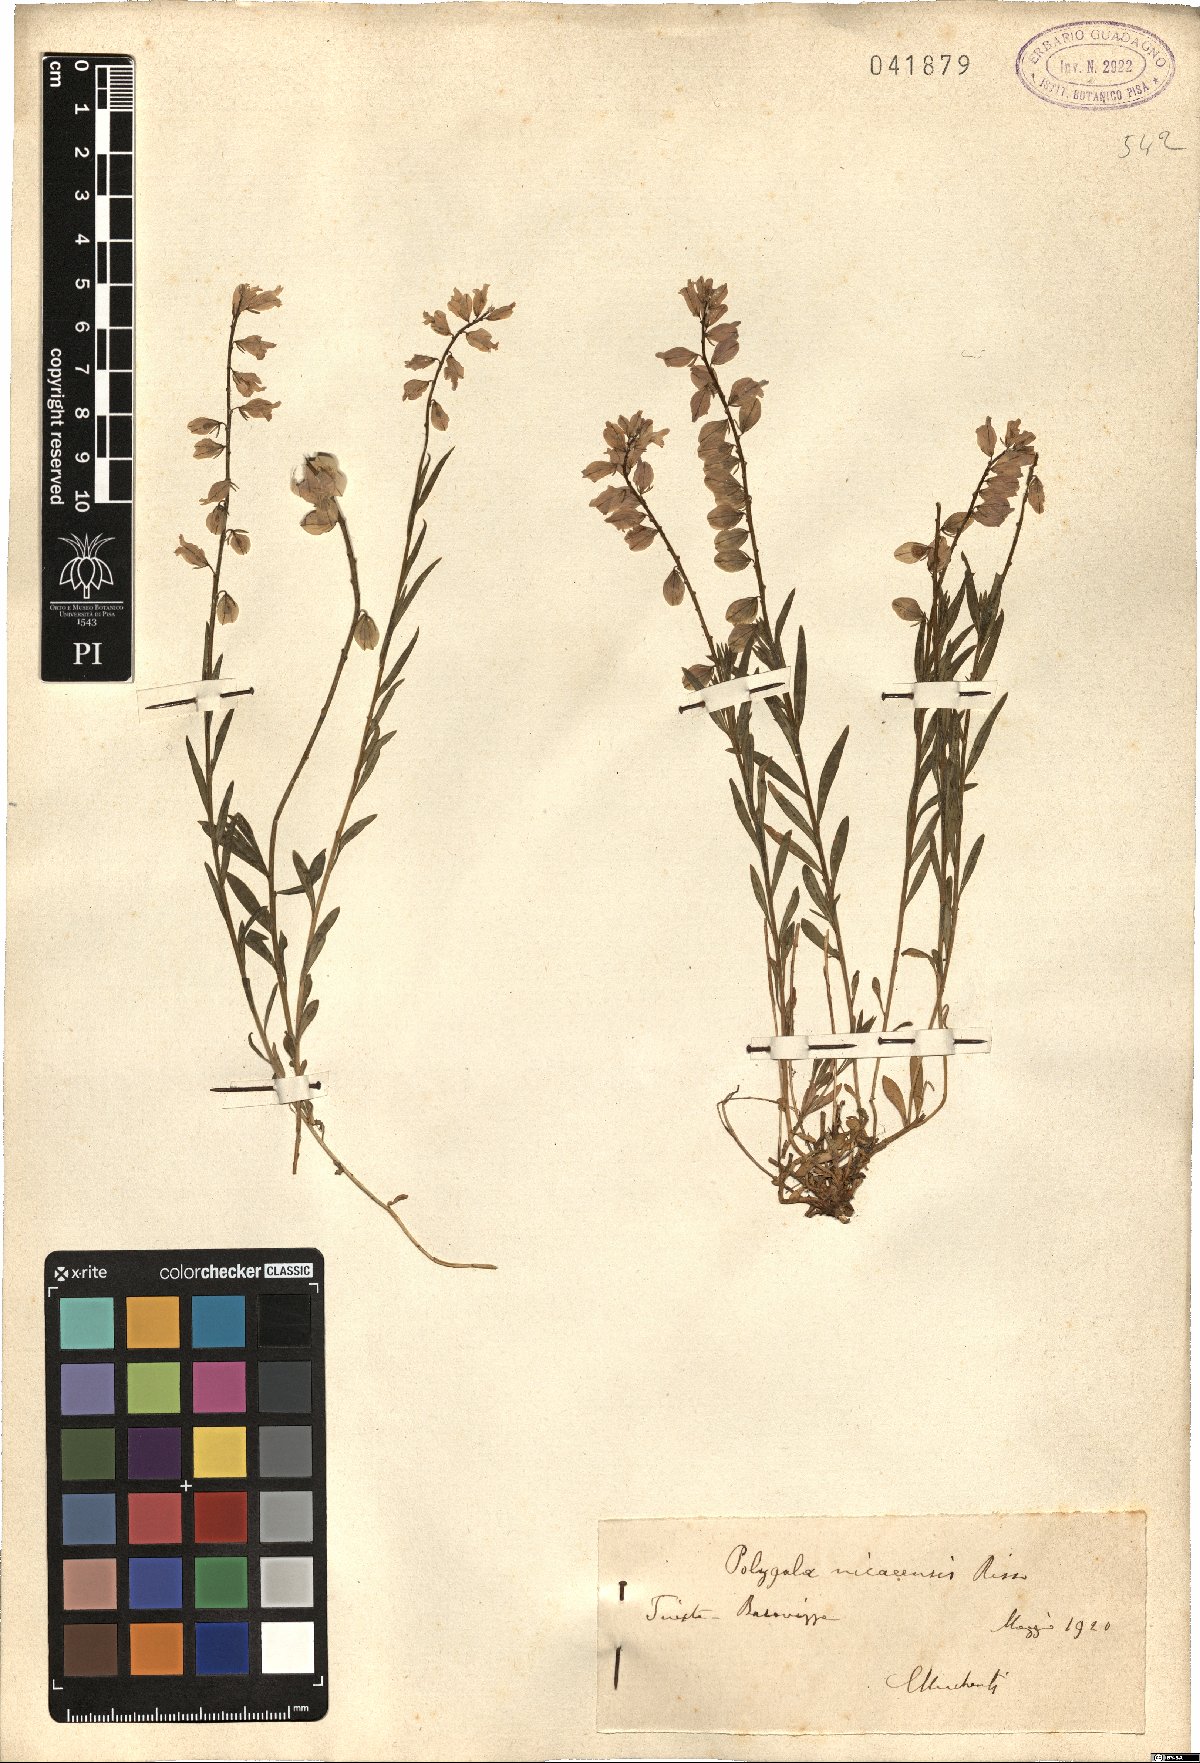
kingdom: Plantae
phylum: Tracheophyta
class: Magnoliopsida
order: Fabales
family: Polygalaceae
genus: Polygala
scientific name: Polygala nicaeensis
